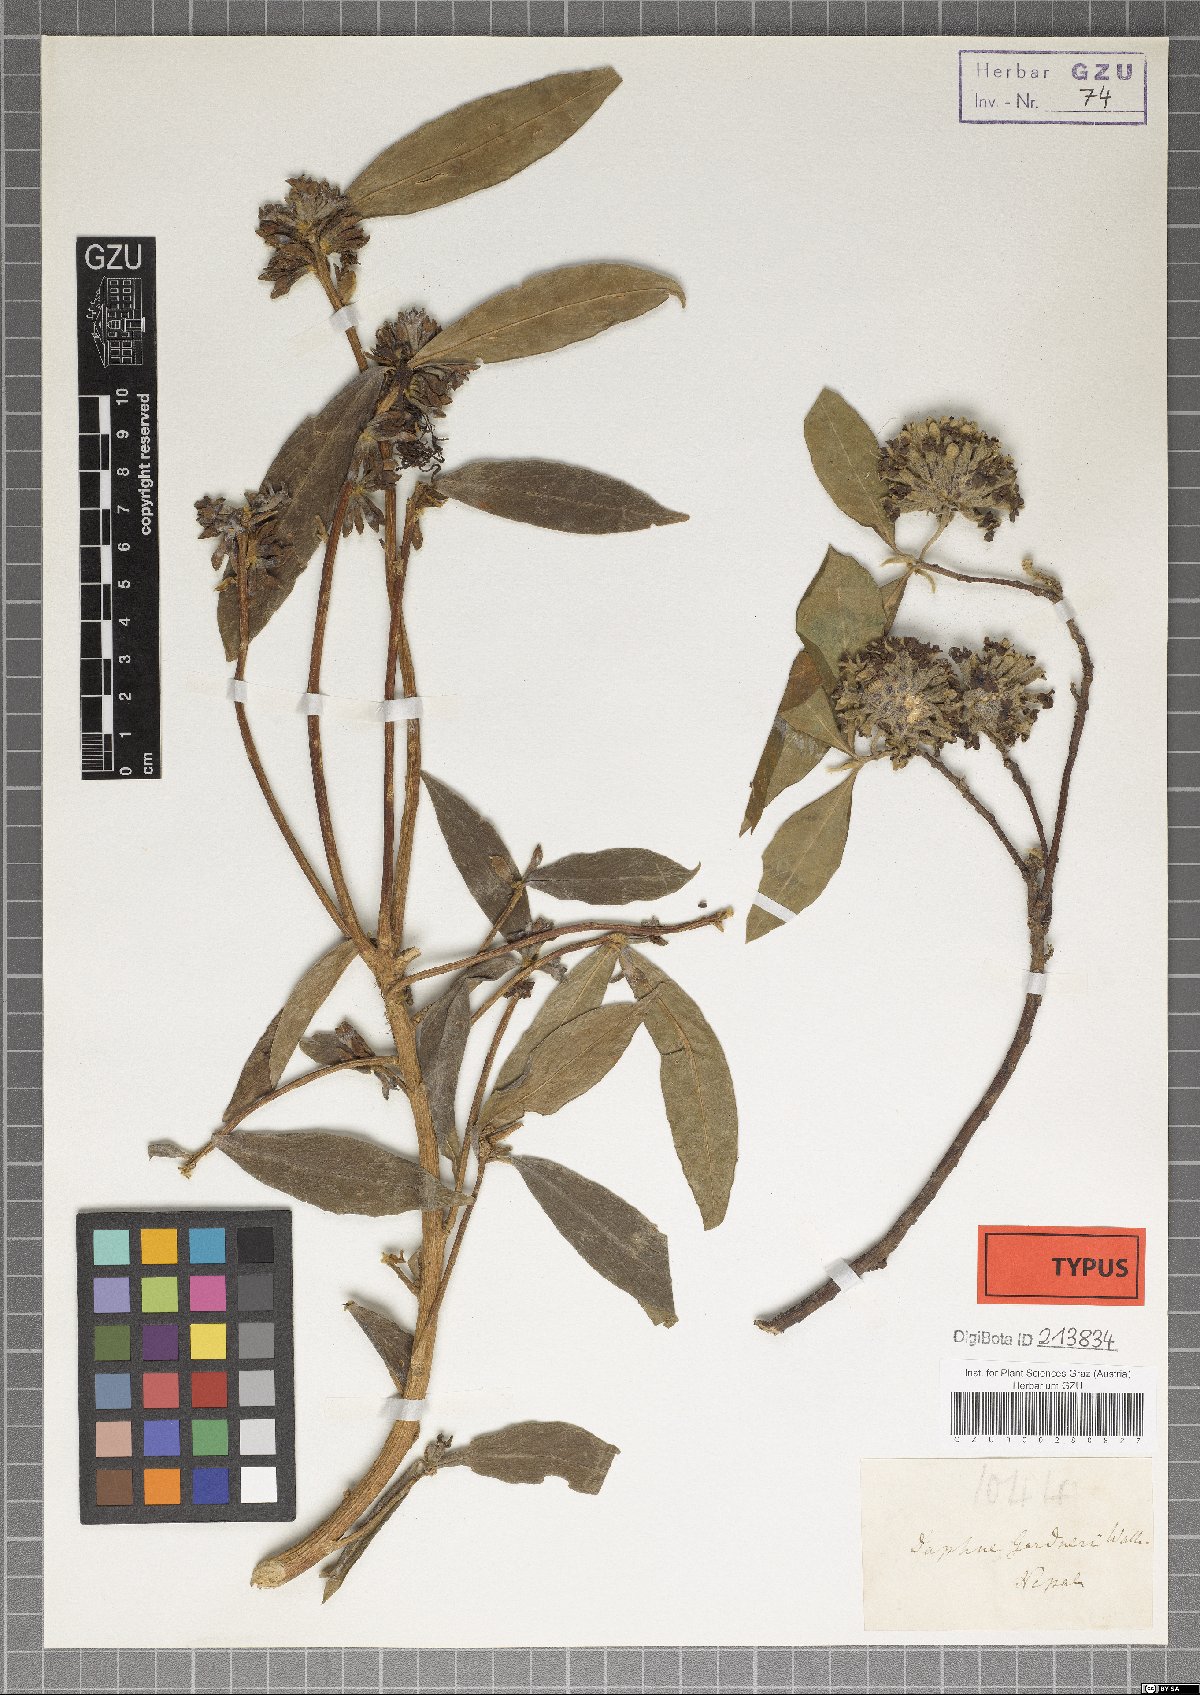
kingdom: Plantae
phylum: Tracheophyta
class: Magnoliopsida
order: Malvales
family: Thymelaeaceae
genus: Edgeworthia
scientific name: Edgeworthia gardneri
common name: Nepalese paperbush
